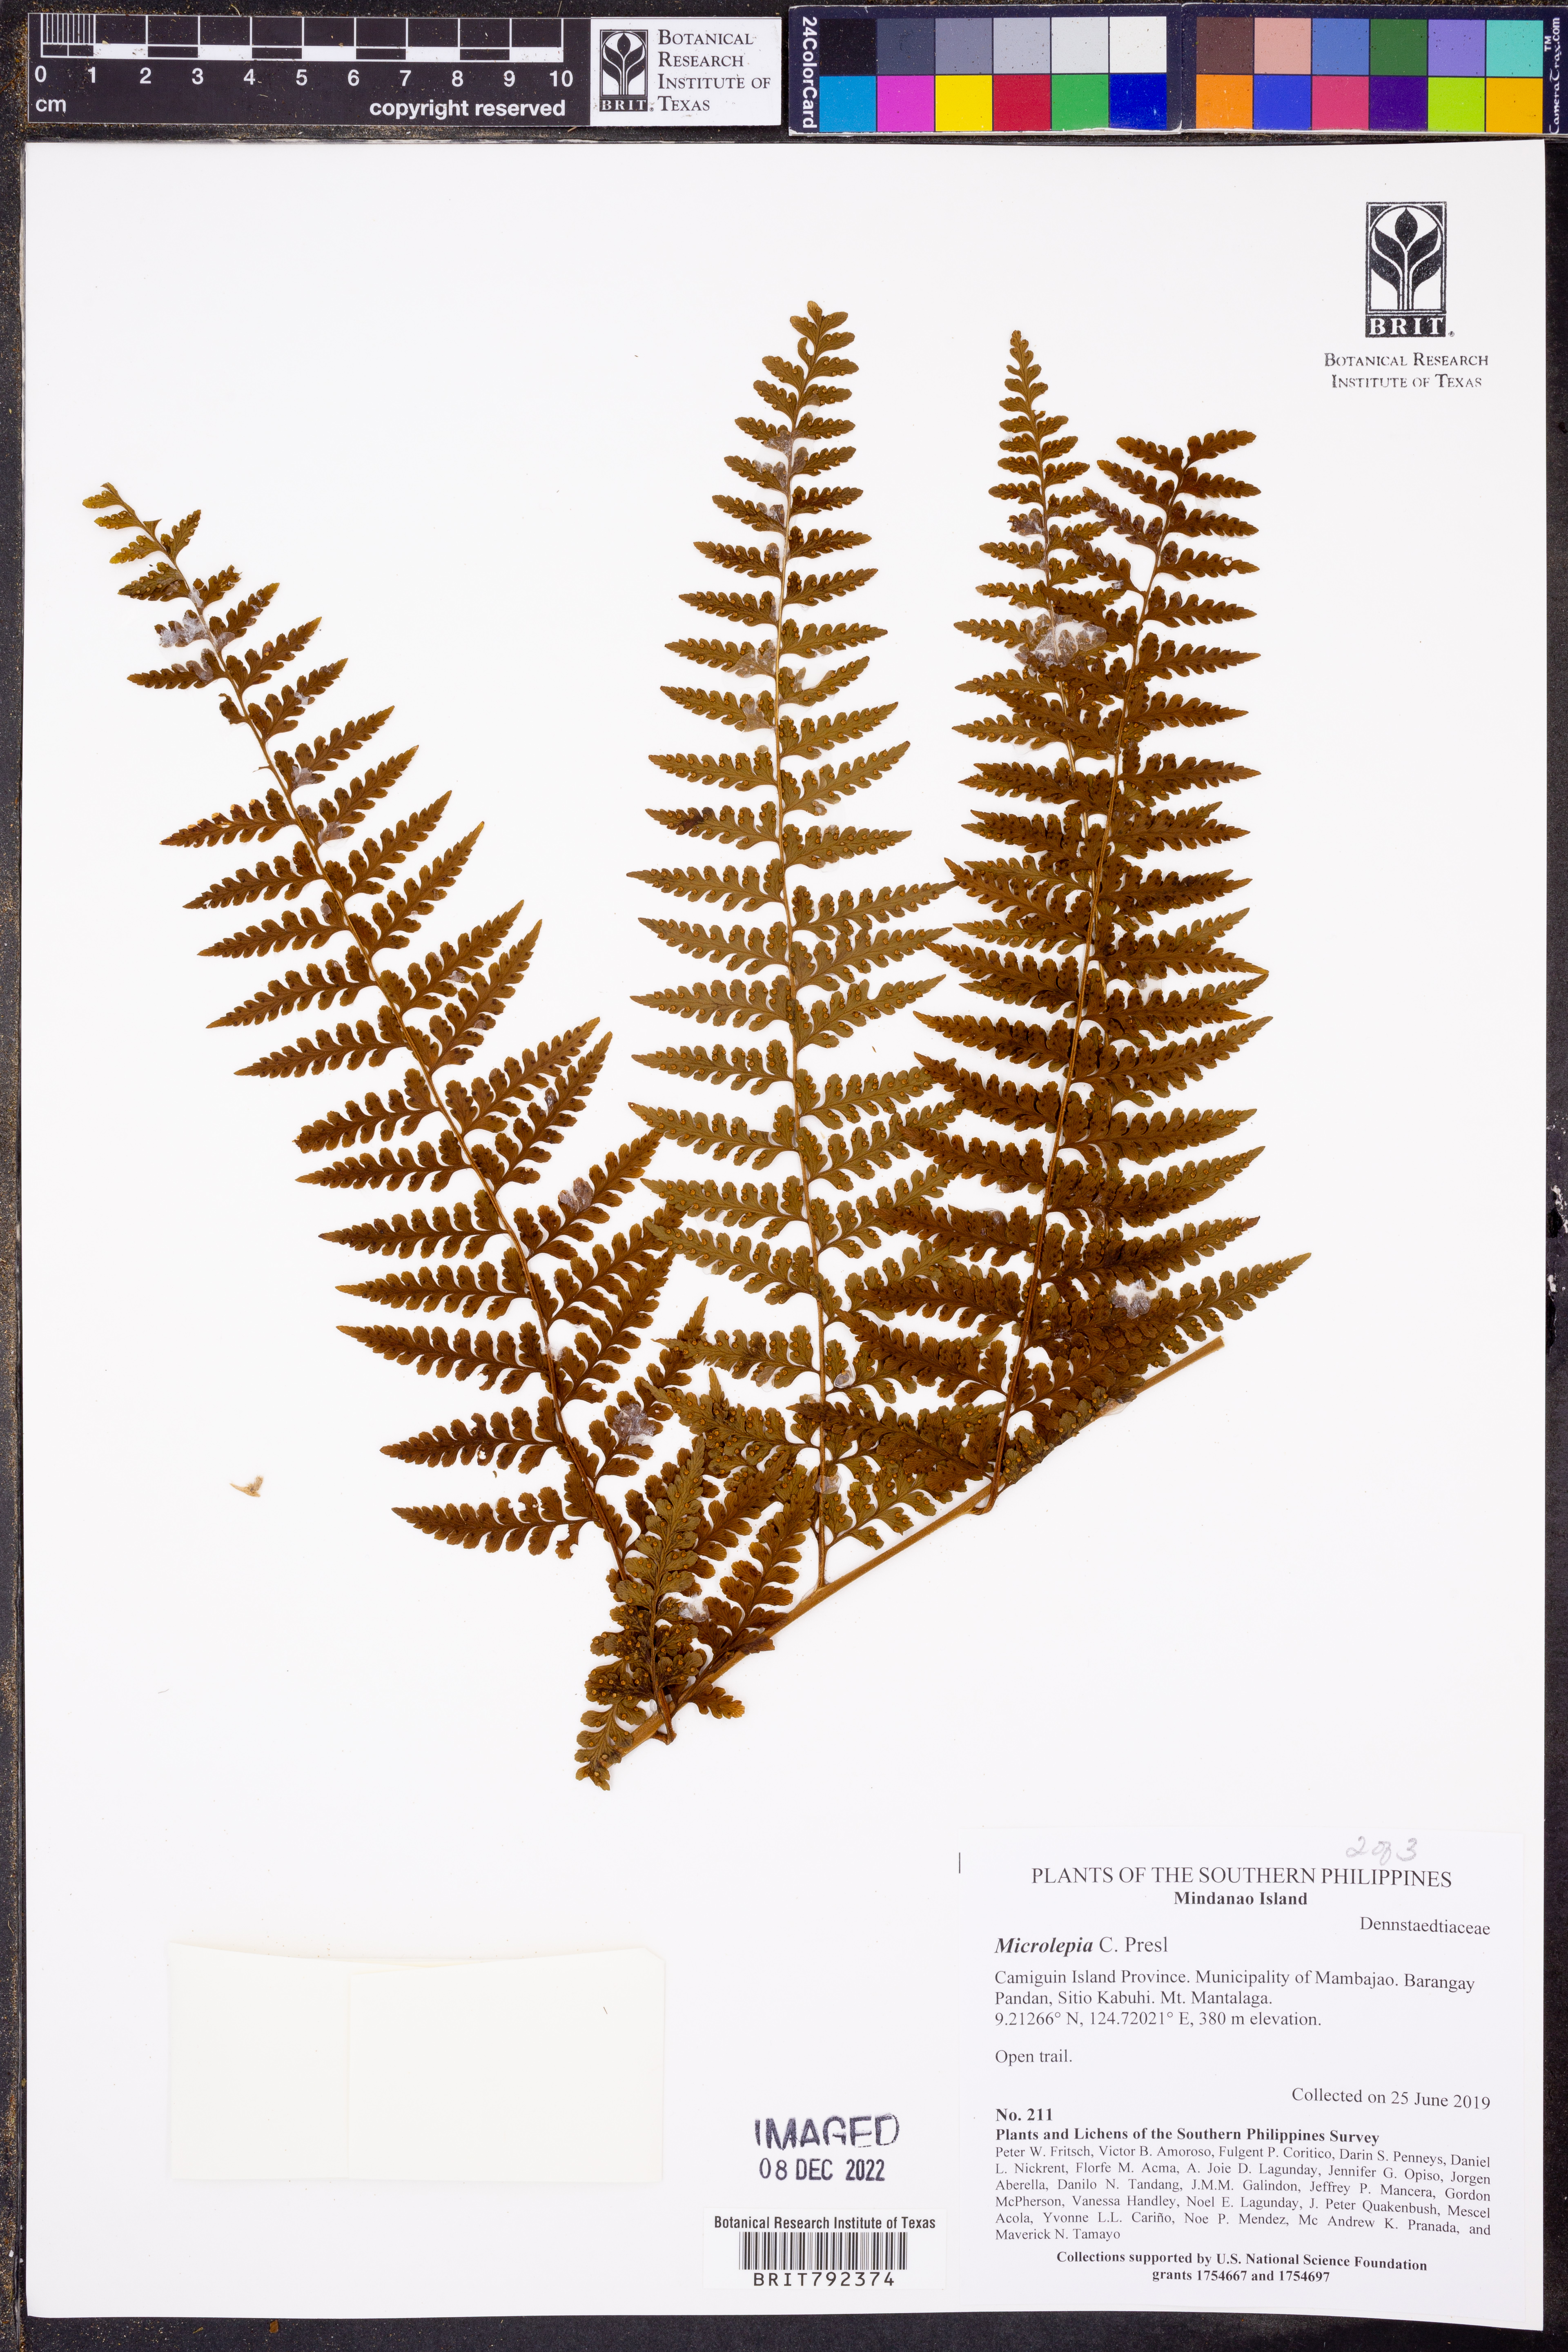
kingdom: Plantae
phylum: Tracheophyta
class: Polypodiopsida
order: Polypodiales
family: Dennstaedtiaceae
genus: Microlepia
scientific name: Microlepia
